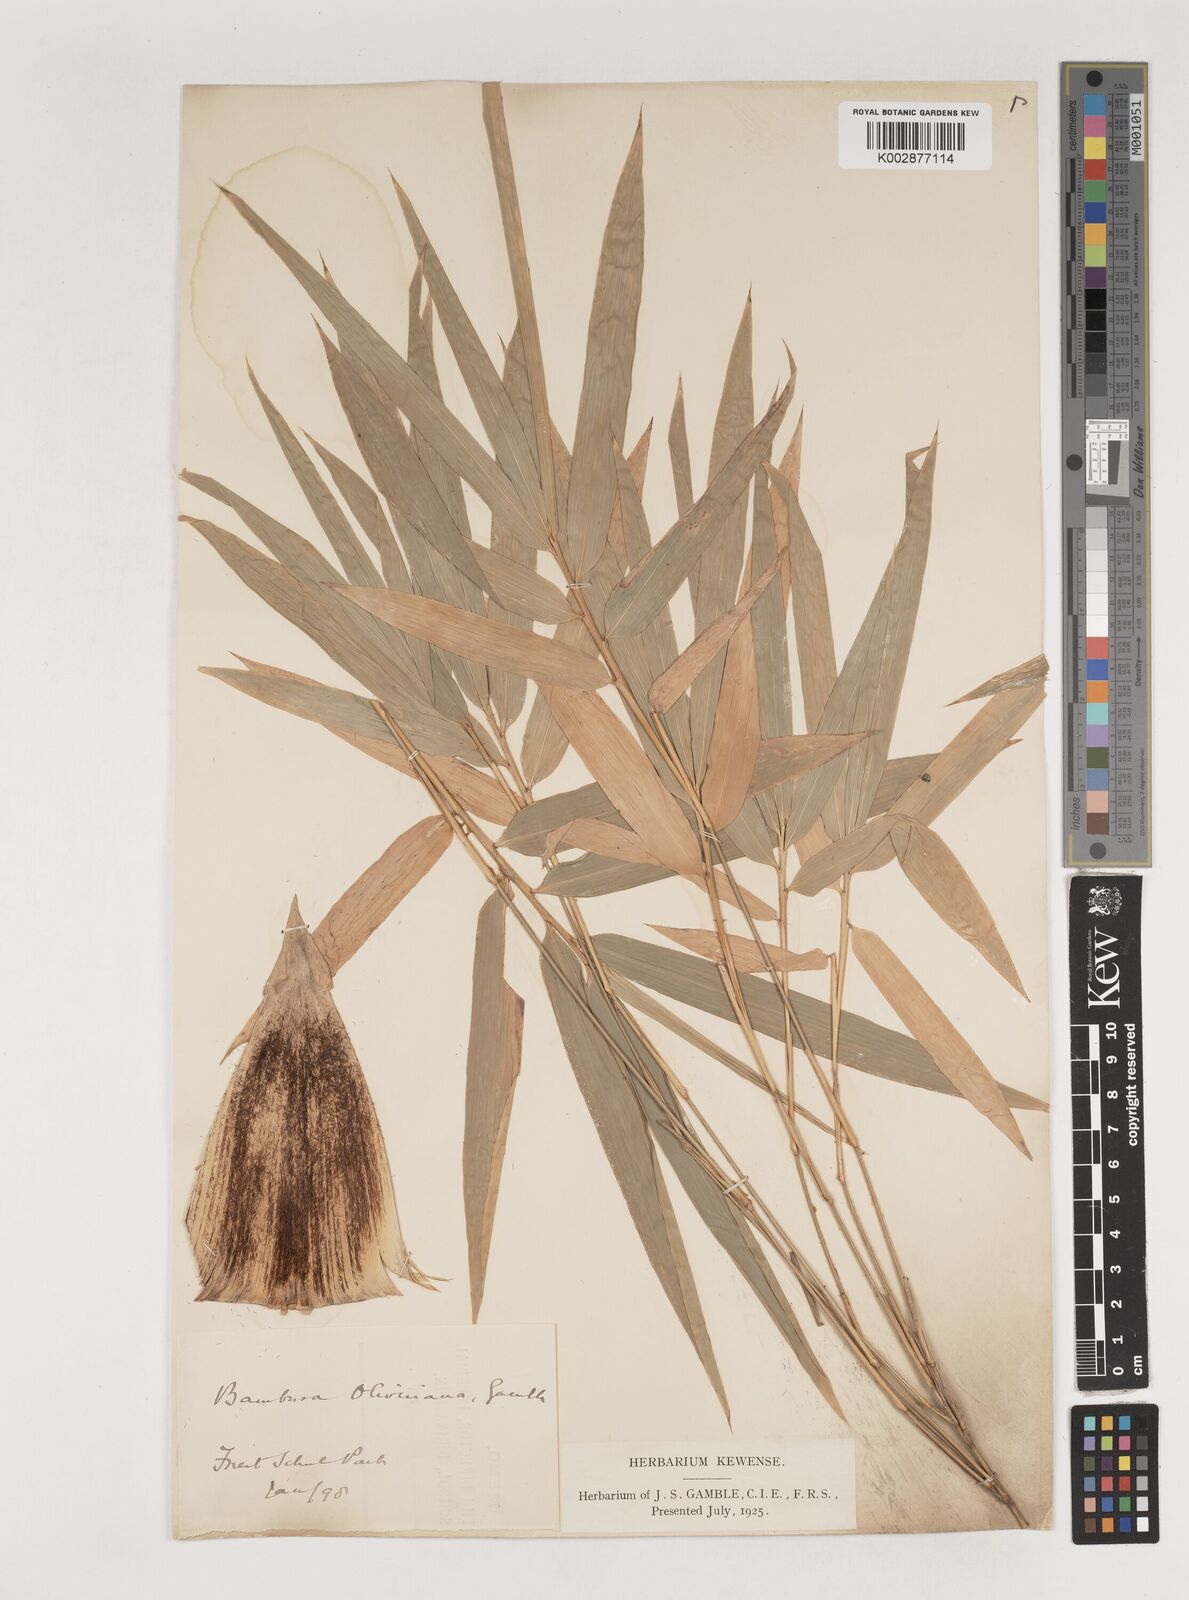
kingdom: Plantae
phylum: Tracheophyta
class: Liliopsida
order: Poales
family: Poaceae
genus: Bambusa
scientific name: Bambusa
